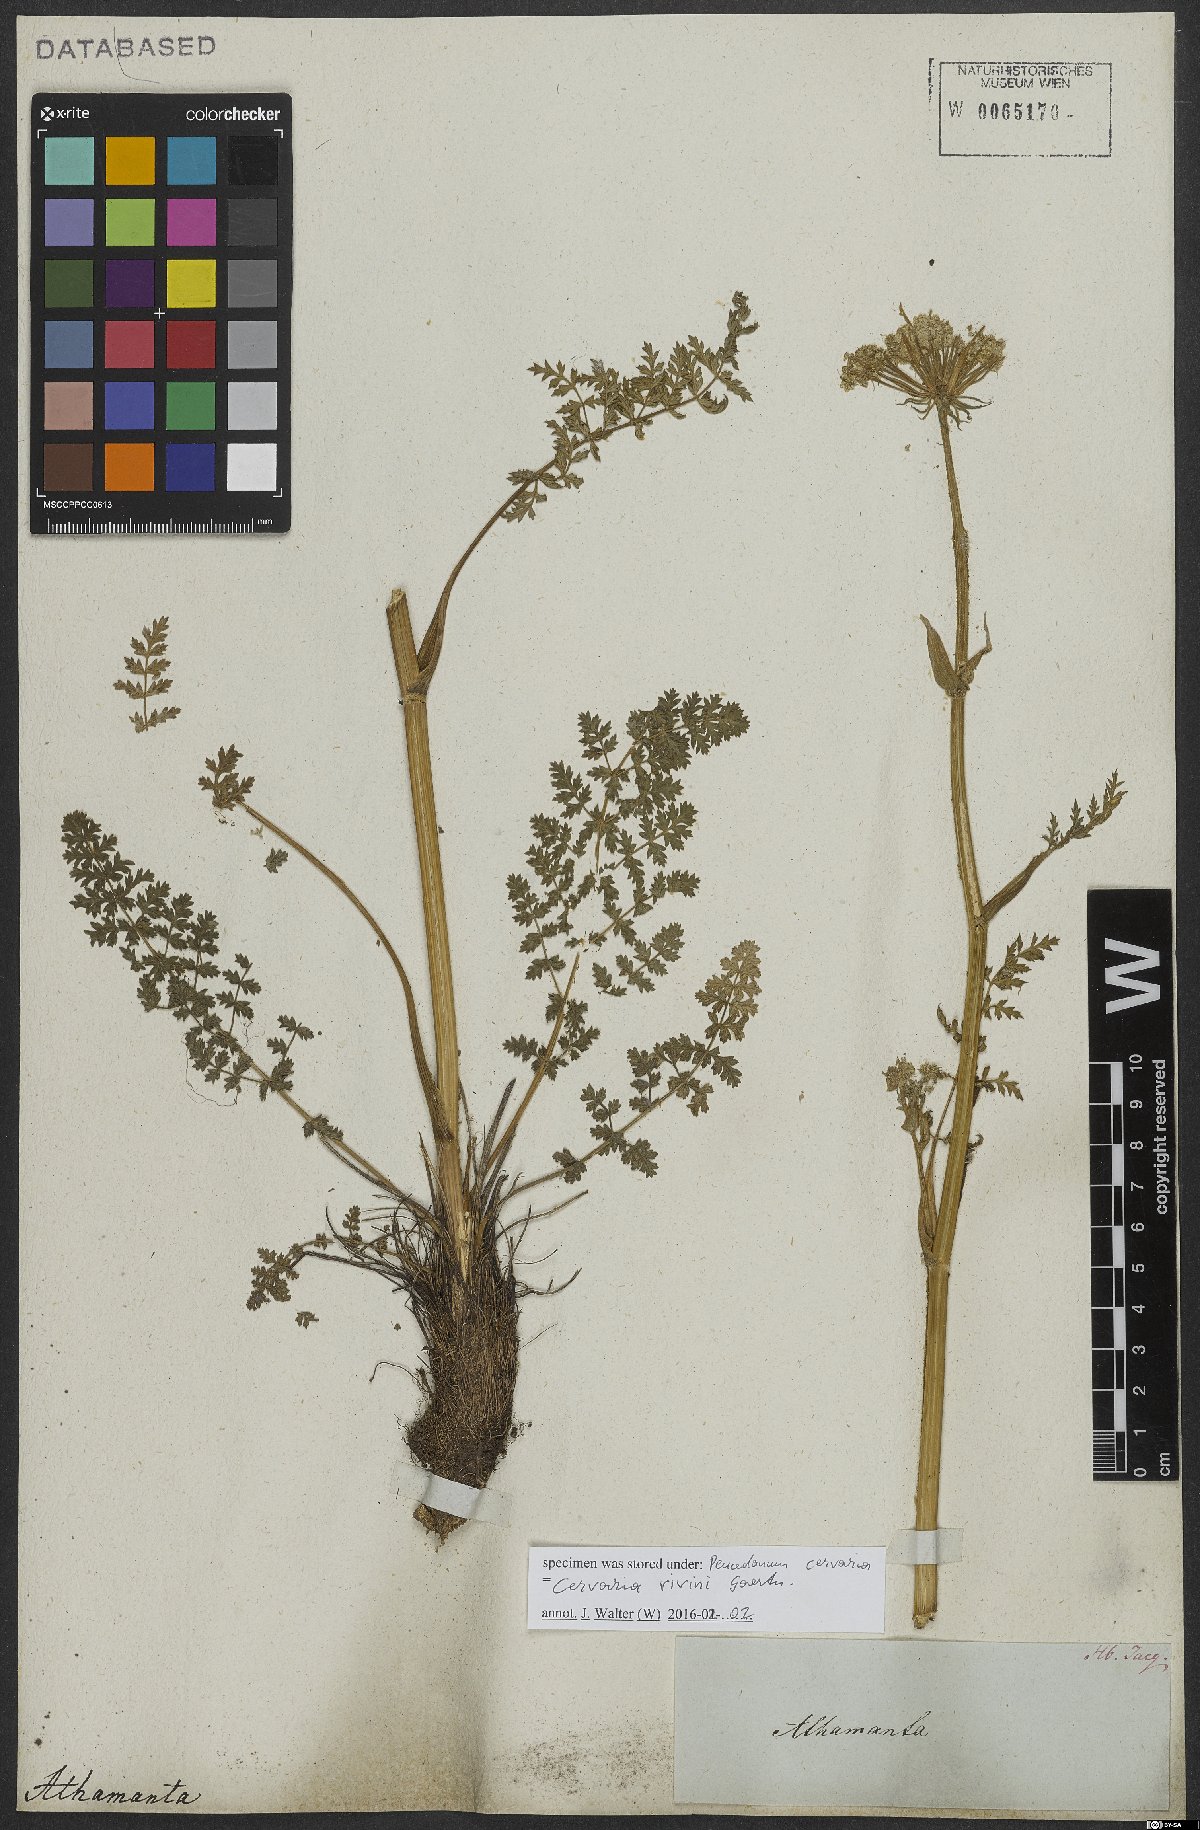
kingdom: Plantae
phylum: Tracheophyta
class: Magnoliopsida
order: Apiales
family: Apiaceae
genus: Cervaria
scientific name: Cervaria rivini
